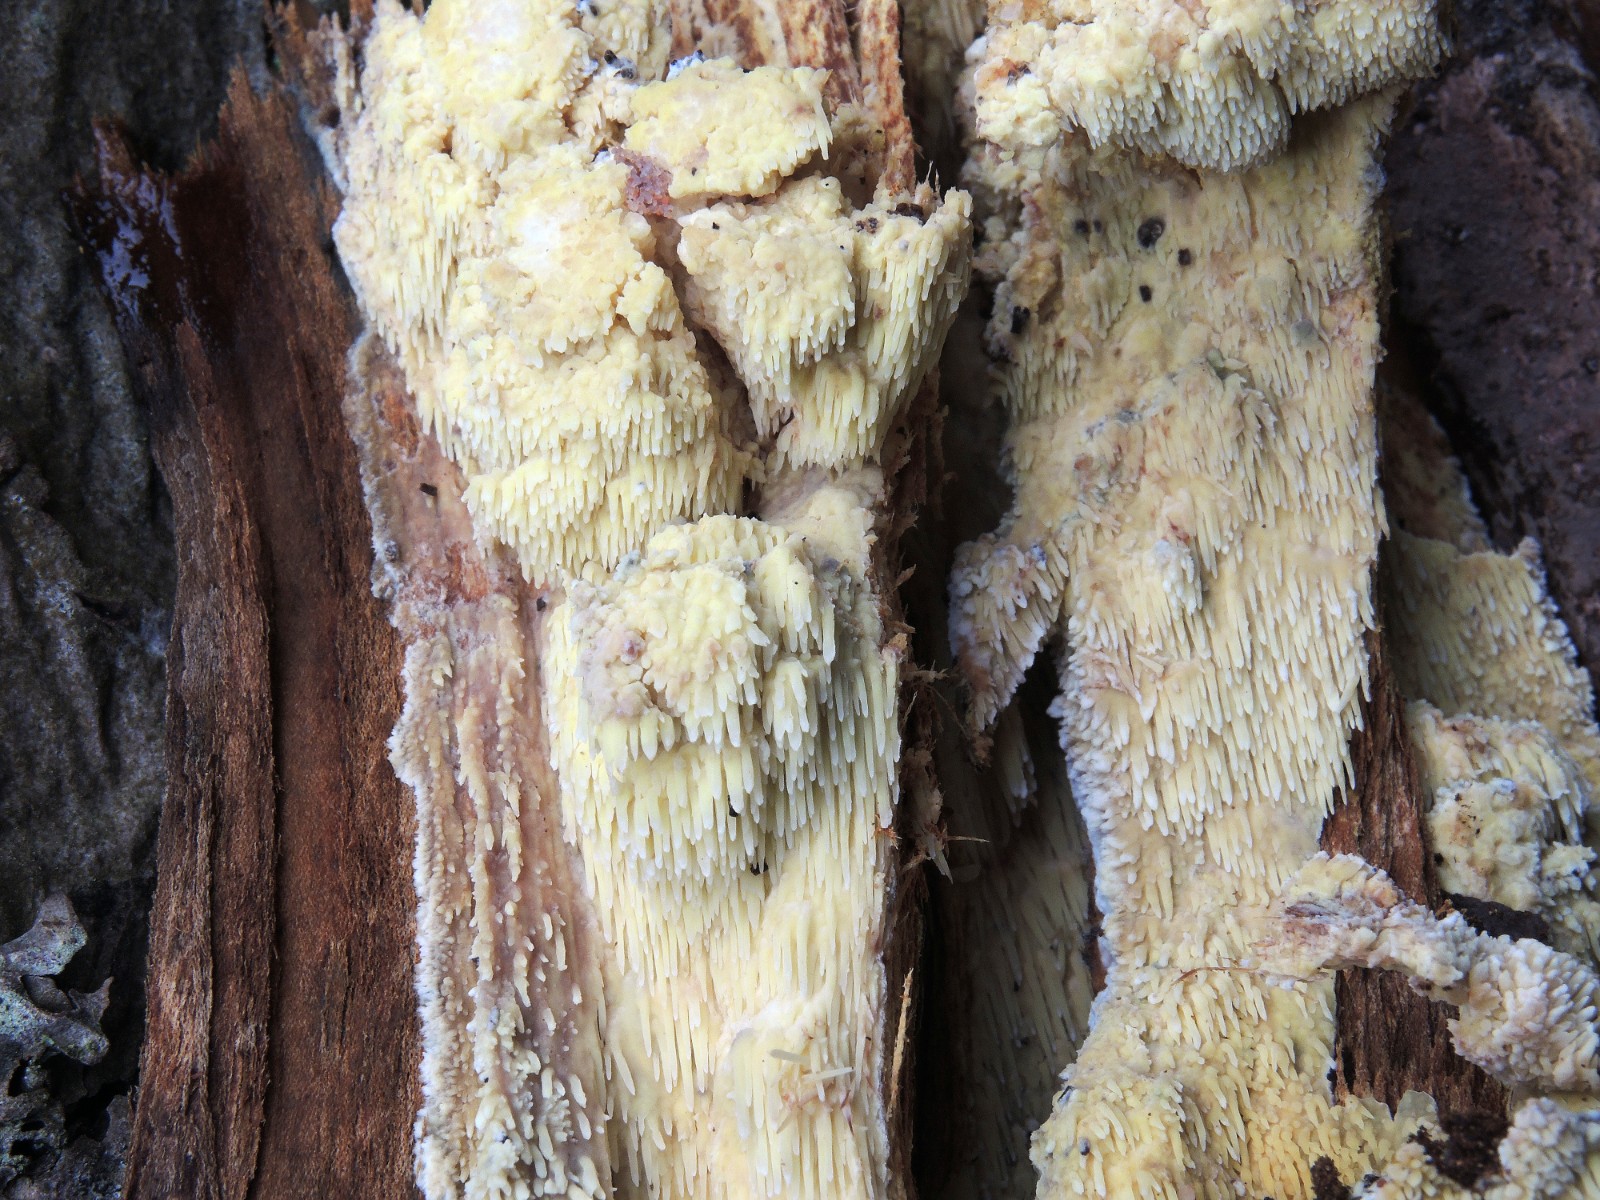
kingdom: Fungi
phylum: Basidiomycota
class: Agaricomycetes
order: Polyporales
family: Meruliaceae
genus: Sarcodontia
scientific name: Sarcodontia setosa
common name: æblepig
